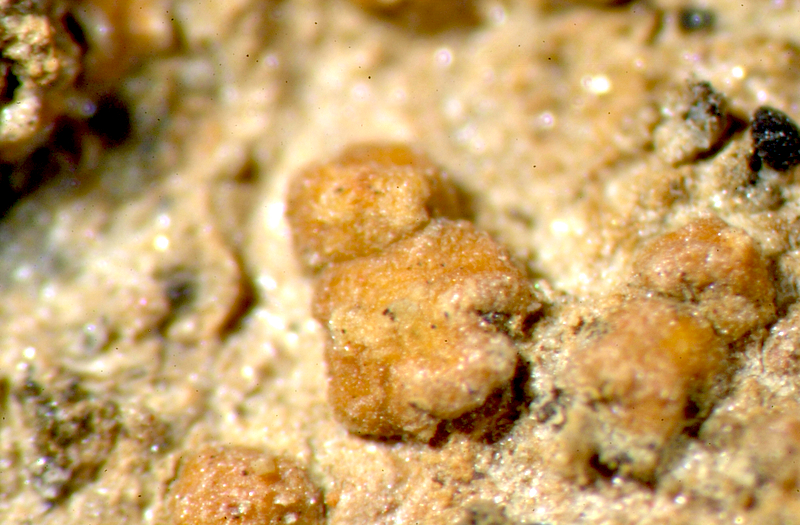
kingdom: Fungi
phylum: Ascomycota
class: Lecanoromycetes
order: Teloschistales
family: Teloschistaceae
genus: Caloplaca
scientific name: Caloplaca
